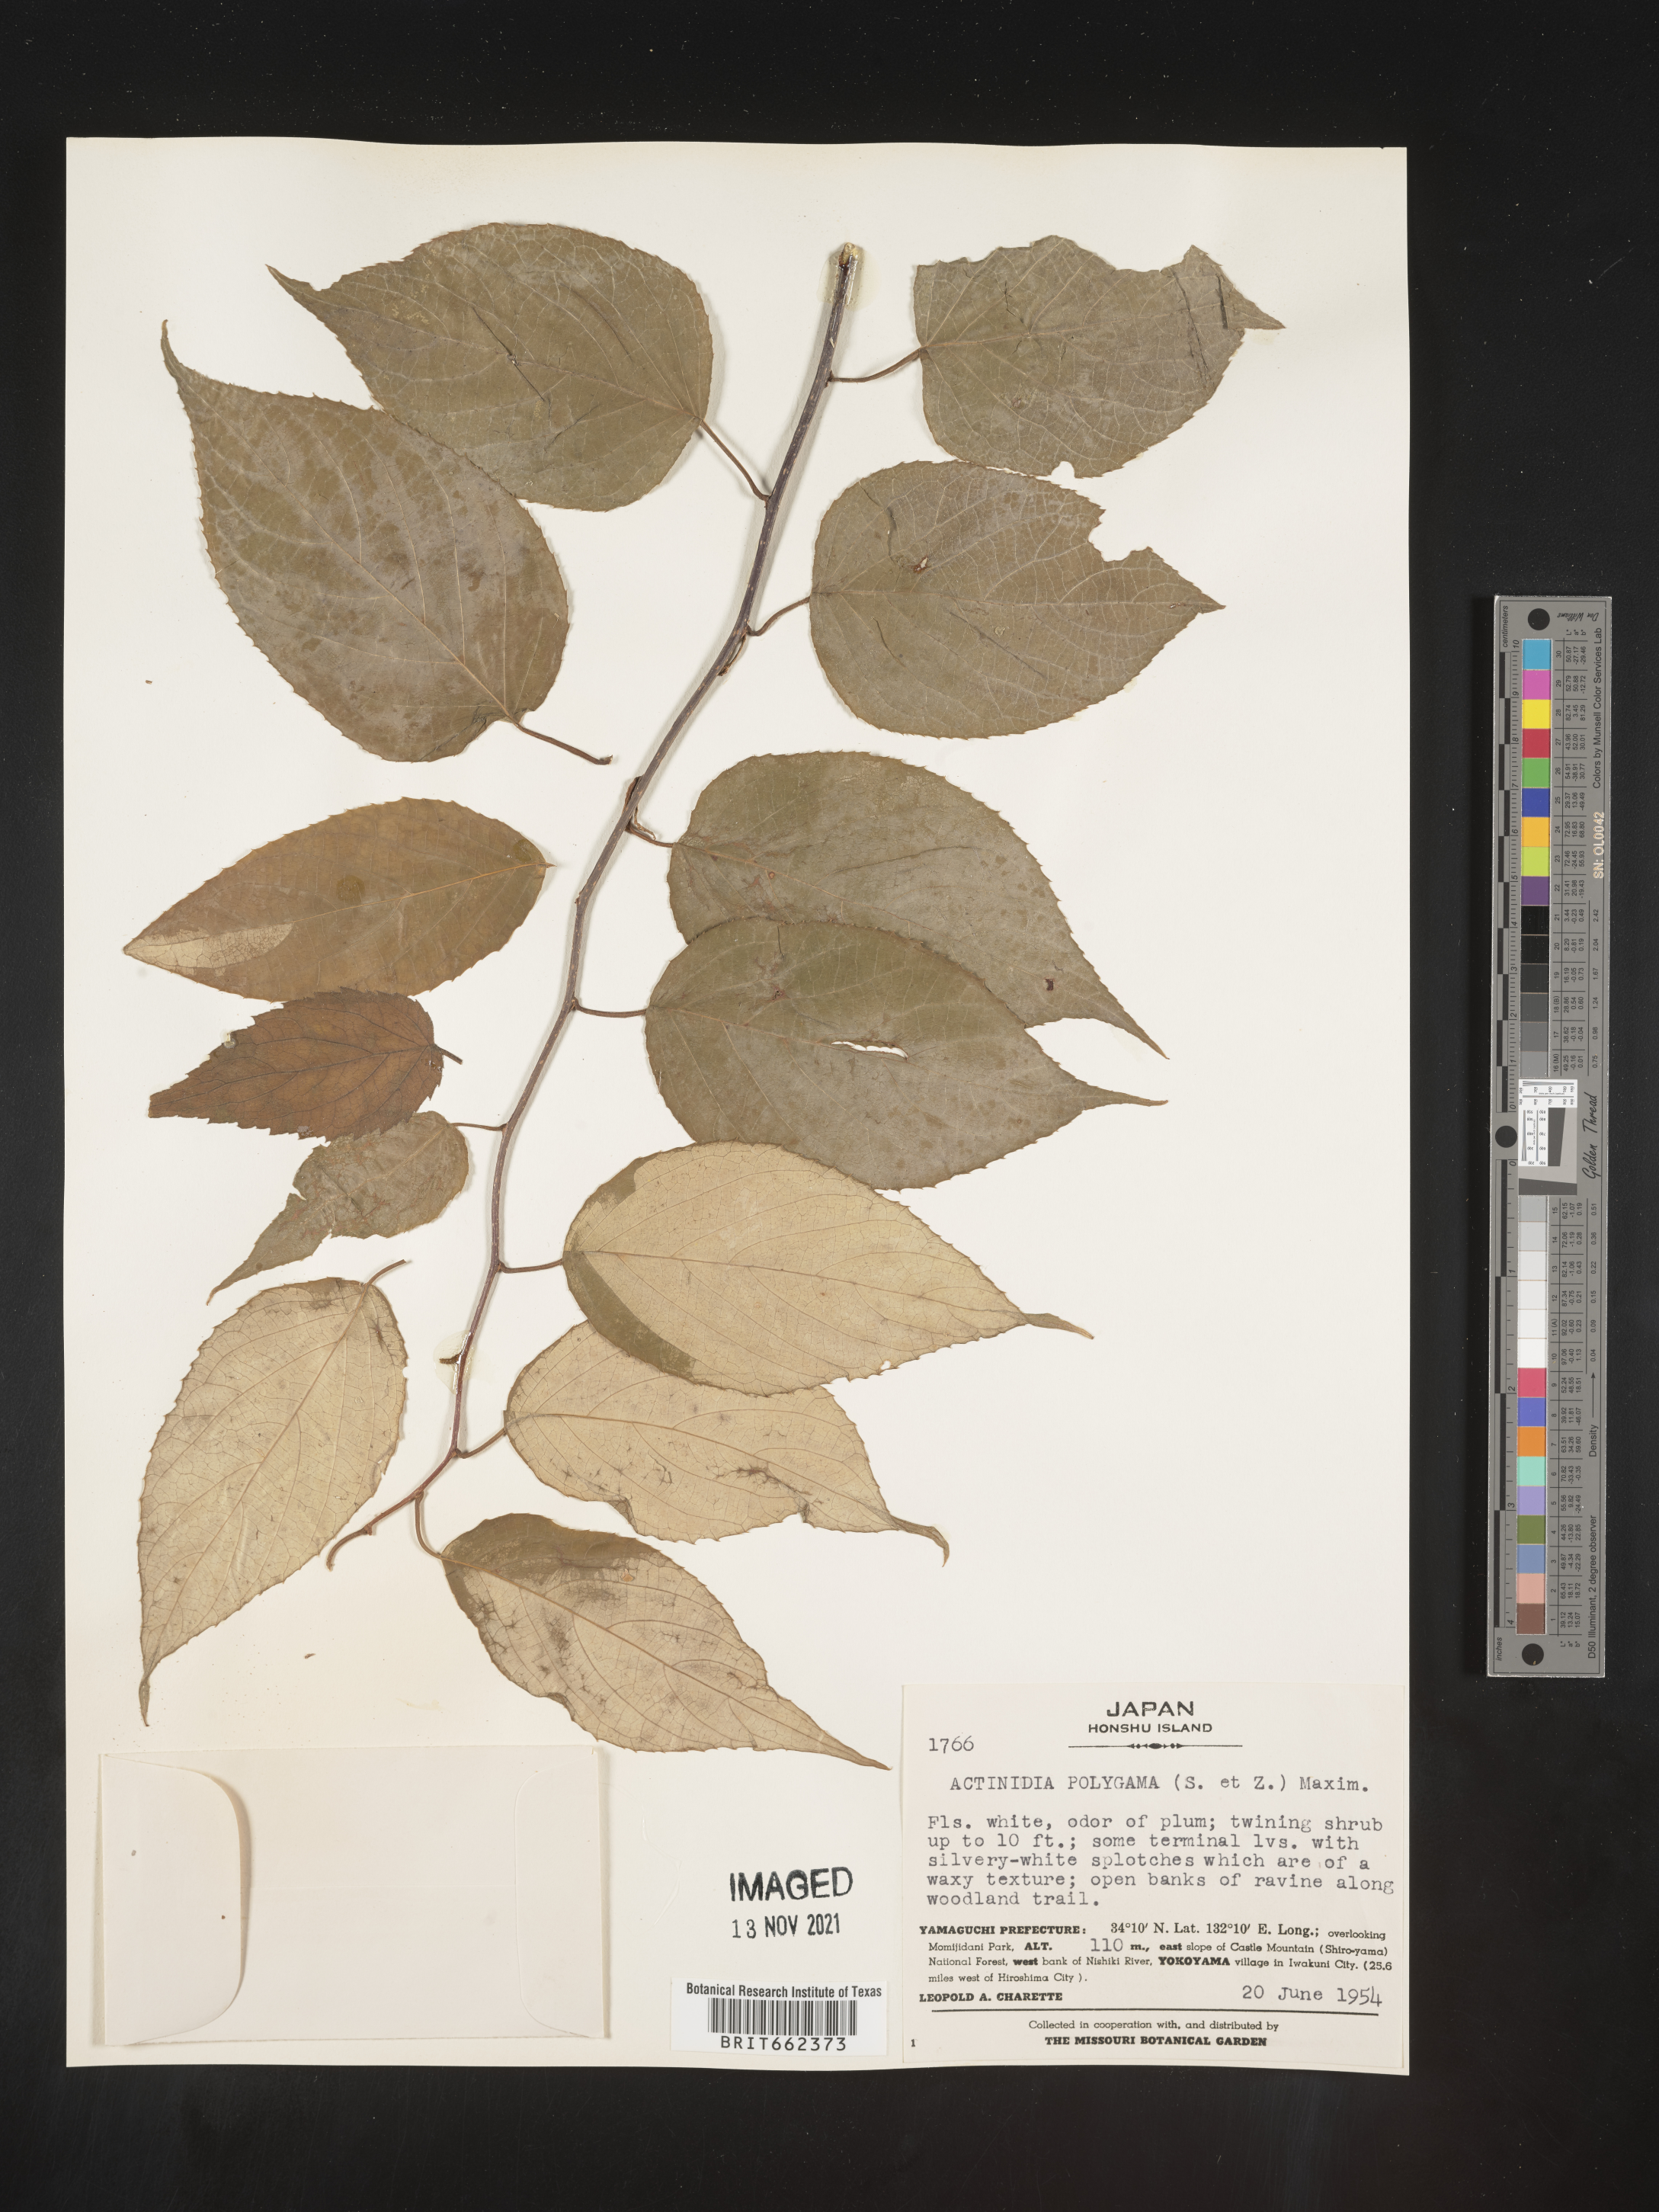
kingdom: Plantae
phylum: Tracheophyta
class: Magnoliopsida
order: Ericales
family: Actinidiaceae
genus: Actinidia
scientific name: Actinidia
